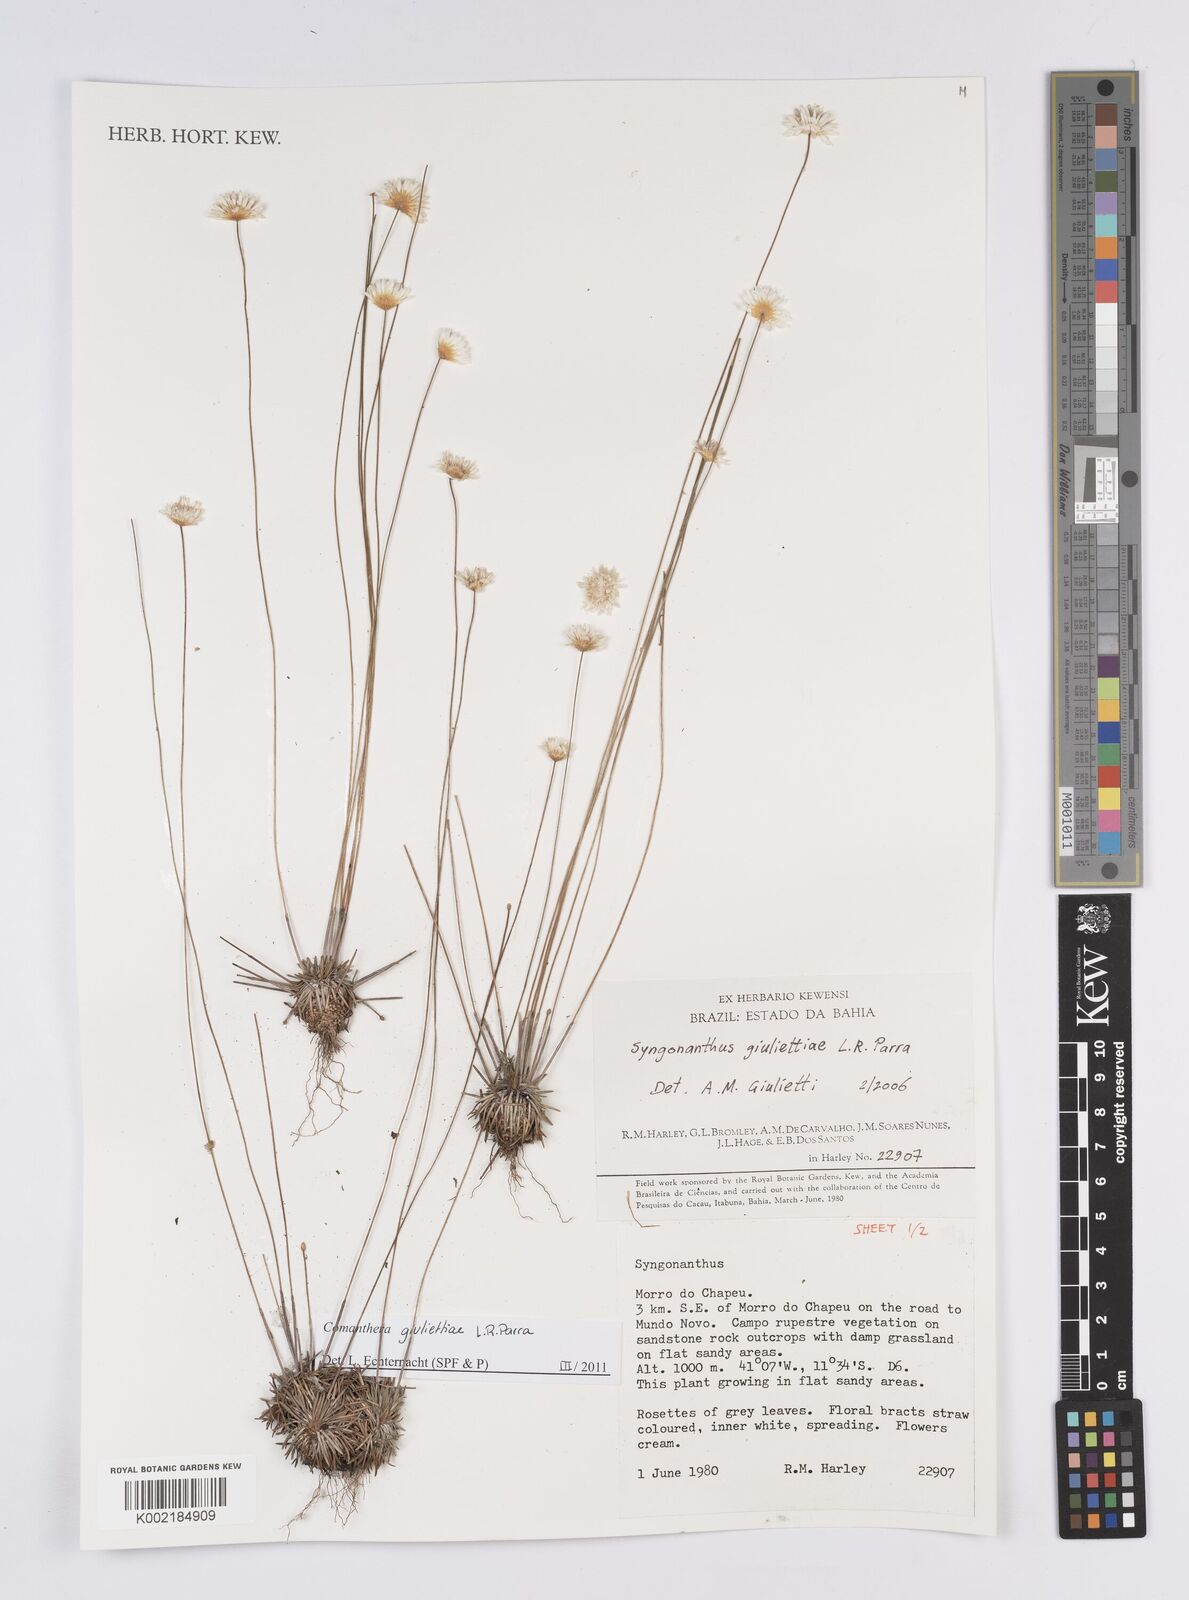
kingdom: Plantae
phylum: Tracheophyta
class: Liliopsida
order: Poales
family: Eriocaulaceae
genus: Comanthera
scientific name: Comanthera giuliettiae
